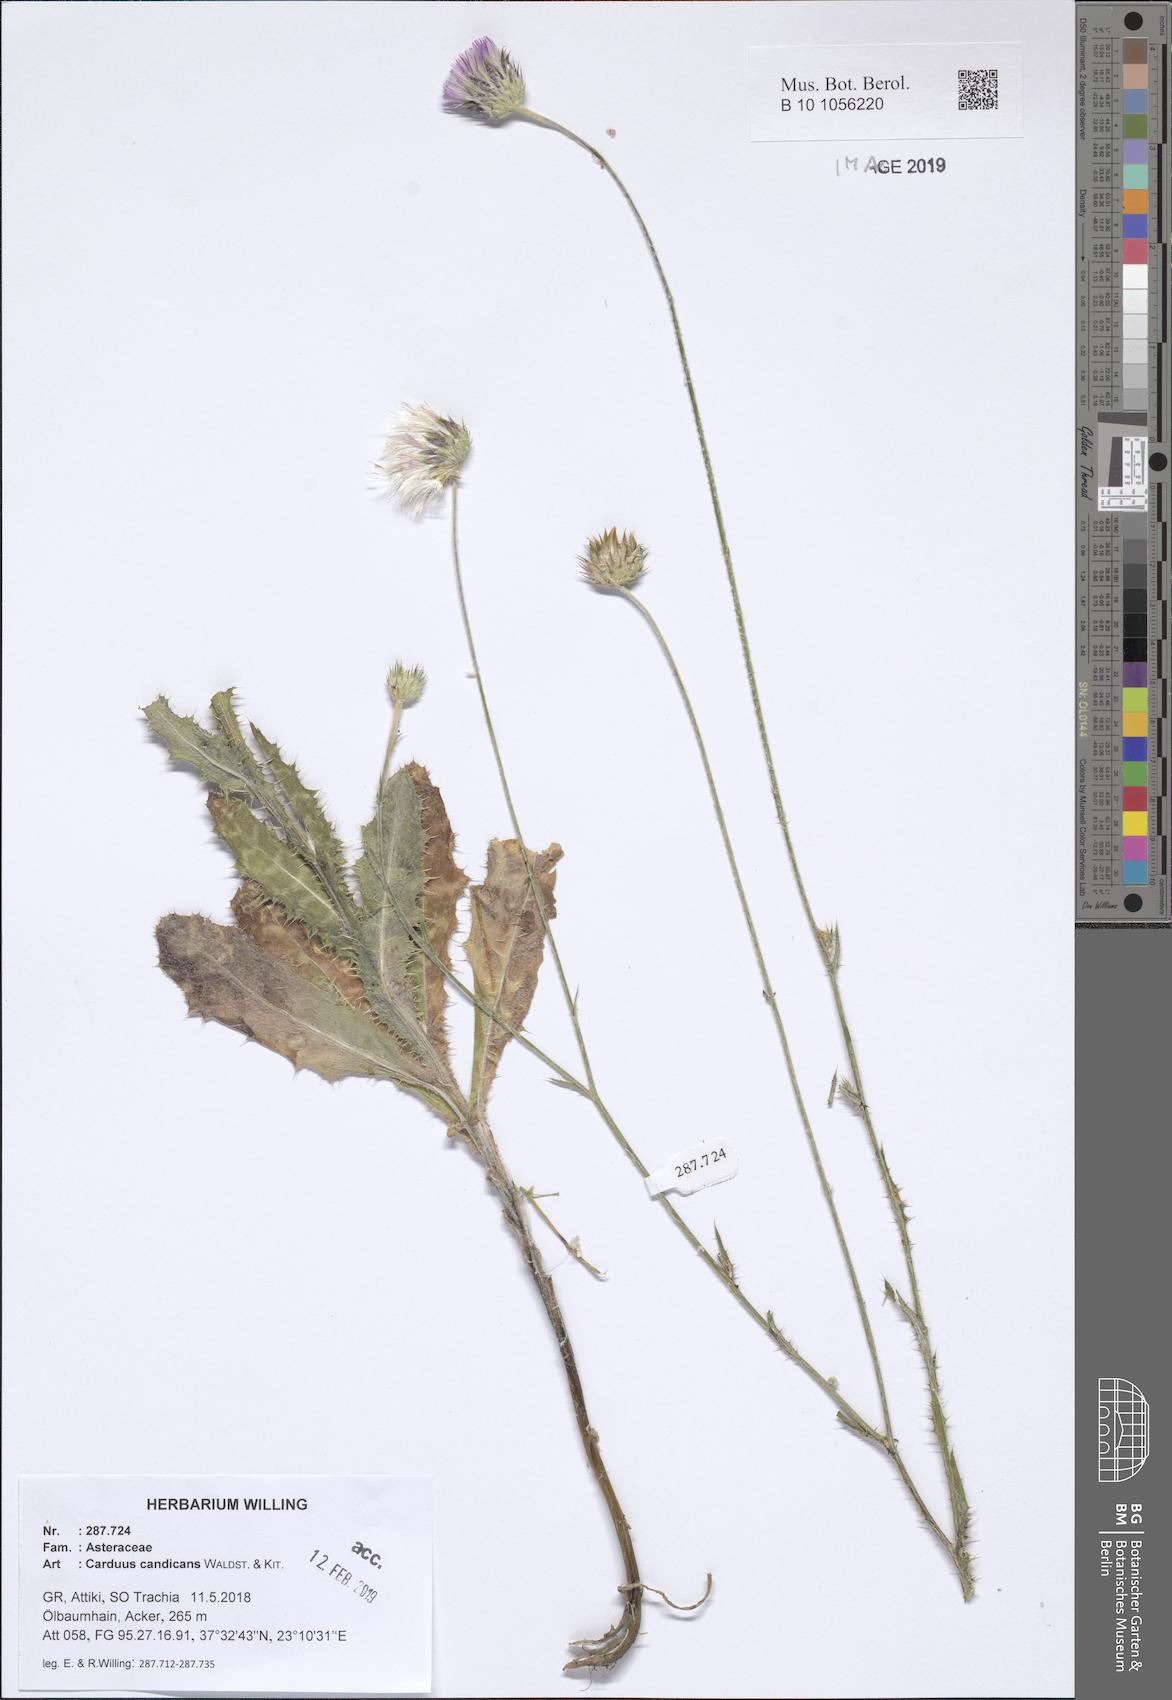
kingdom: Plantae
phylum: Tracheophyta
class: Magnoliopsida
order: Asterales
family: Asteraceae
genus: Carduus
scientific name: Carduus candicans
